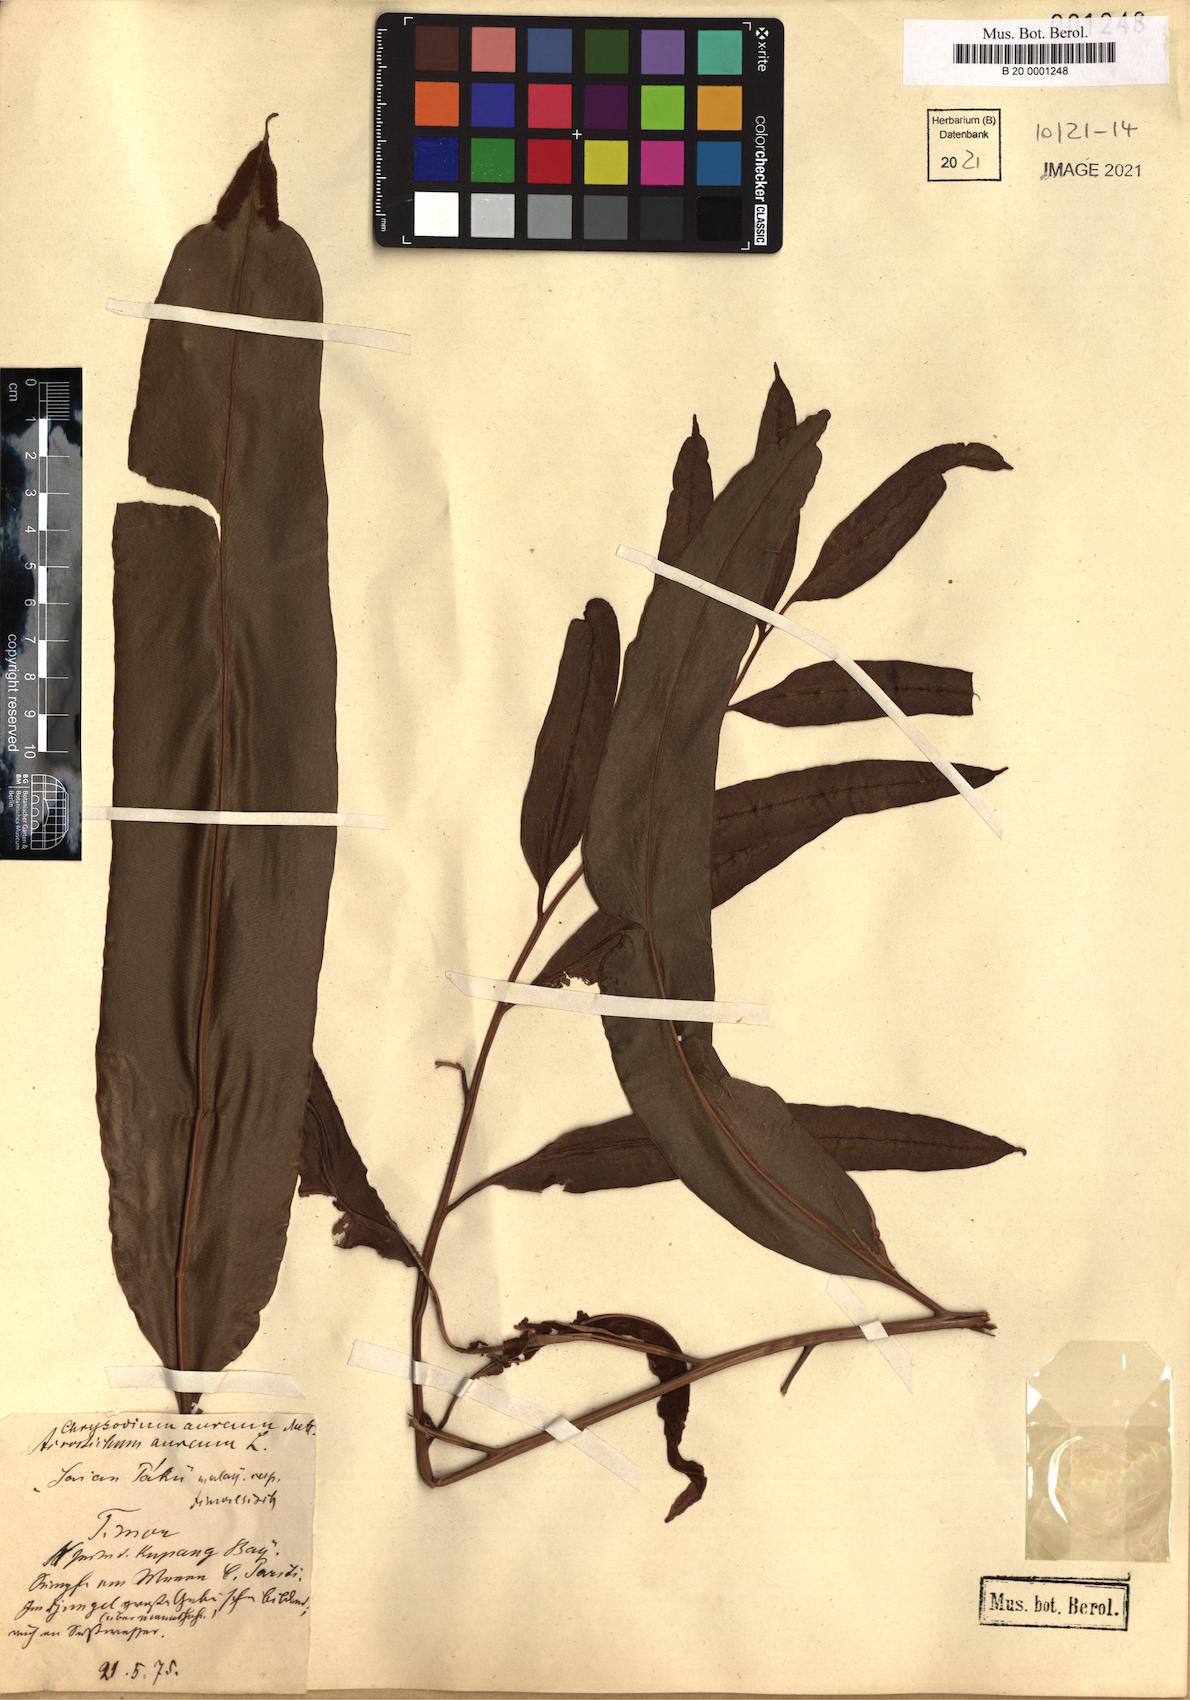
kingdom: Plantae
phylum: Tracheophyta
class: Polypodiopsida
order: Polypodiales
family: Pteridaceae
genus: Acrostichum
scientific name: Acrostichum aureum
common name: Leather fern
